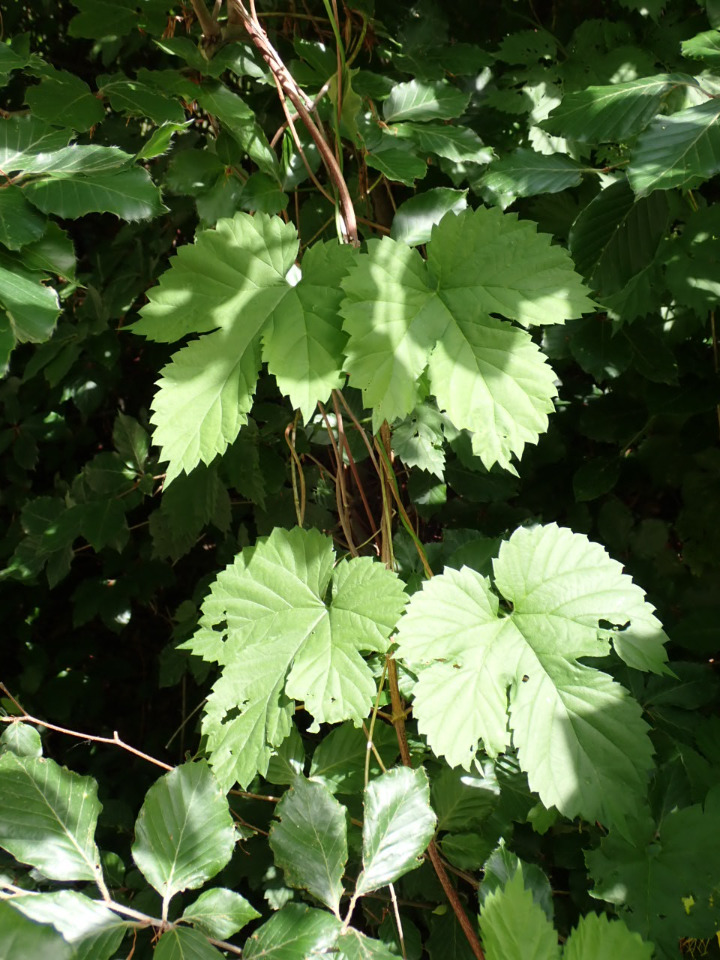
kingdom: Plantae
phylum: Tracheophyta
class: Magnoliopsida
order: Rosales
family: Cannabaceae
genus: Humulus
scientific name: Humulus lupulus
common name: Humle
